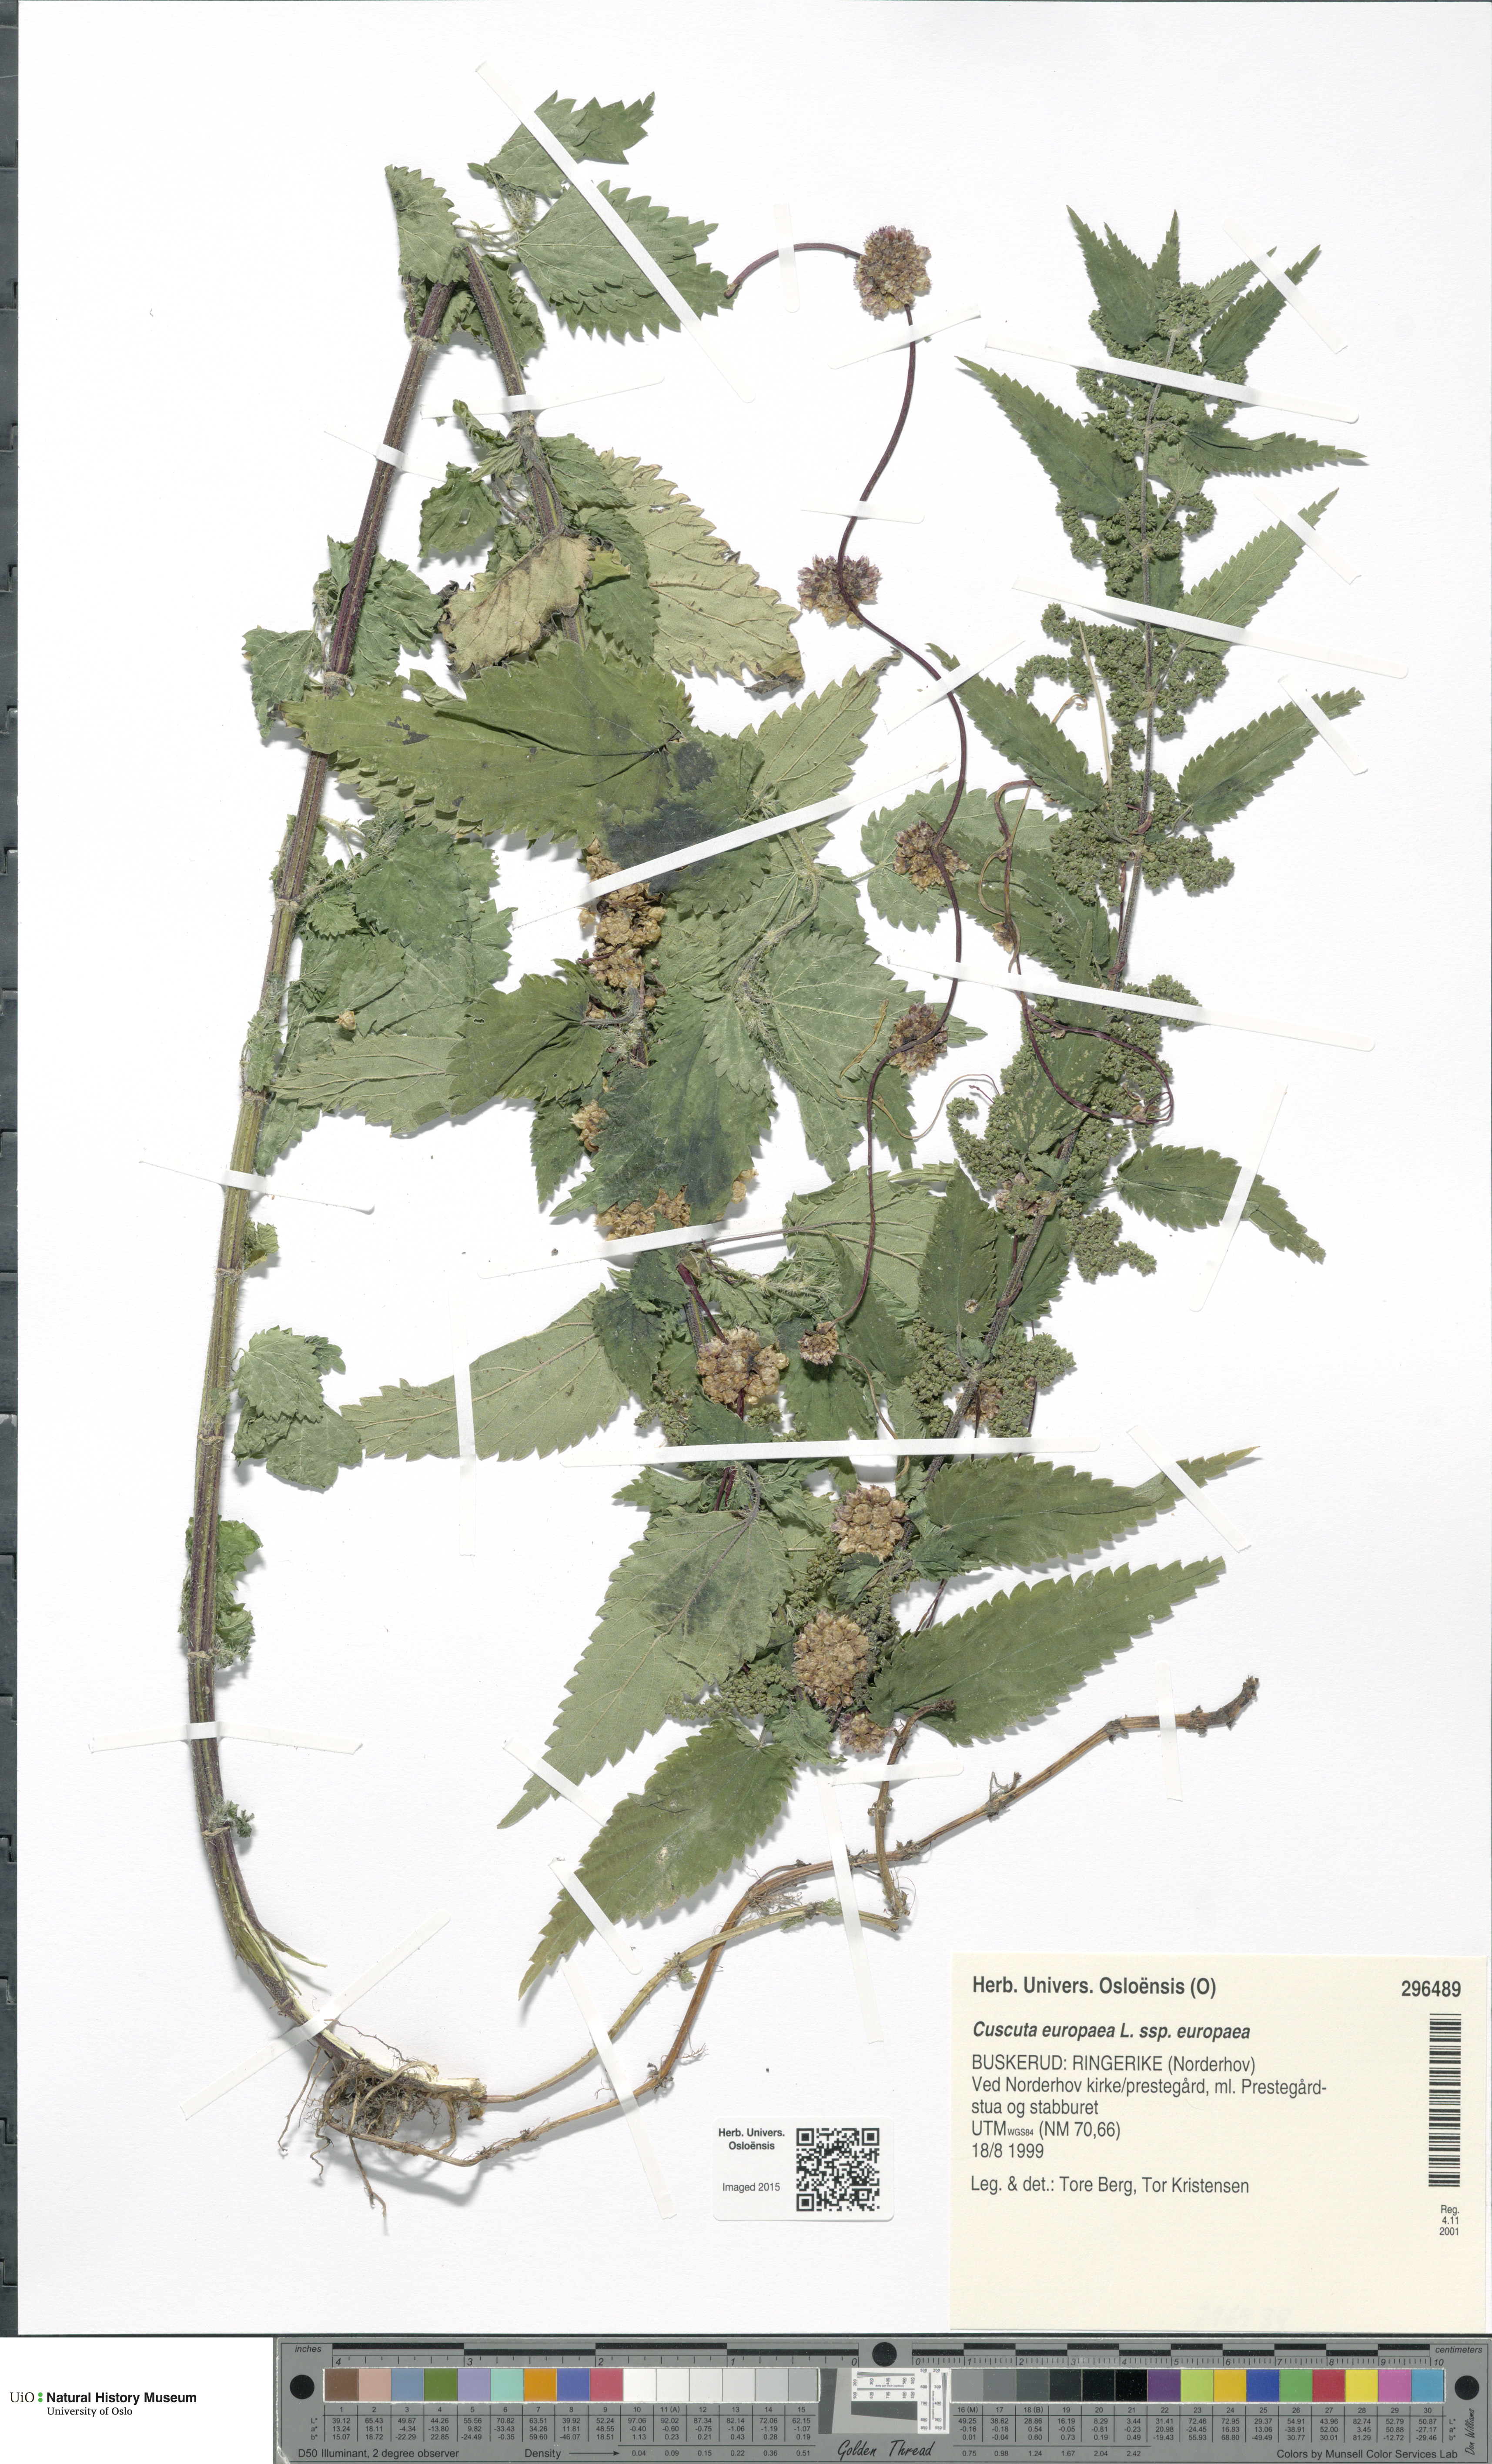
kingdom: Plantae
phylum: Tracheophyta
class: Magnoliopsida
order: Solanales
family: Convolvulaceae
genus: Cuscuta
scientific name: Cuscuta europaea
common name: Greater dodder
